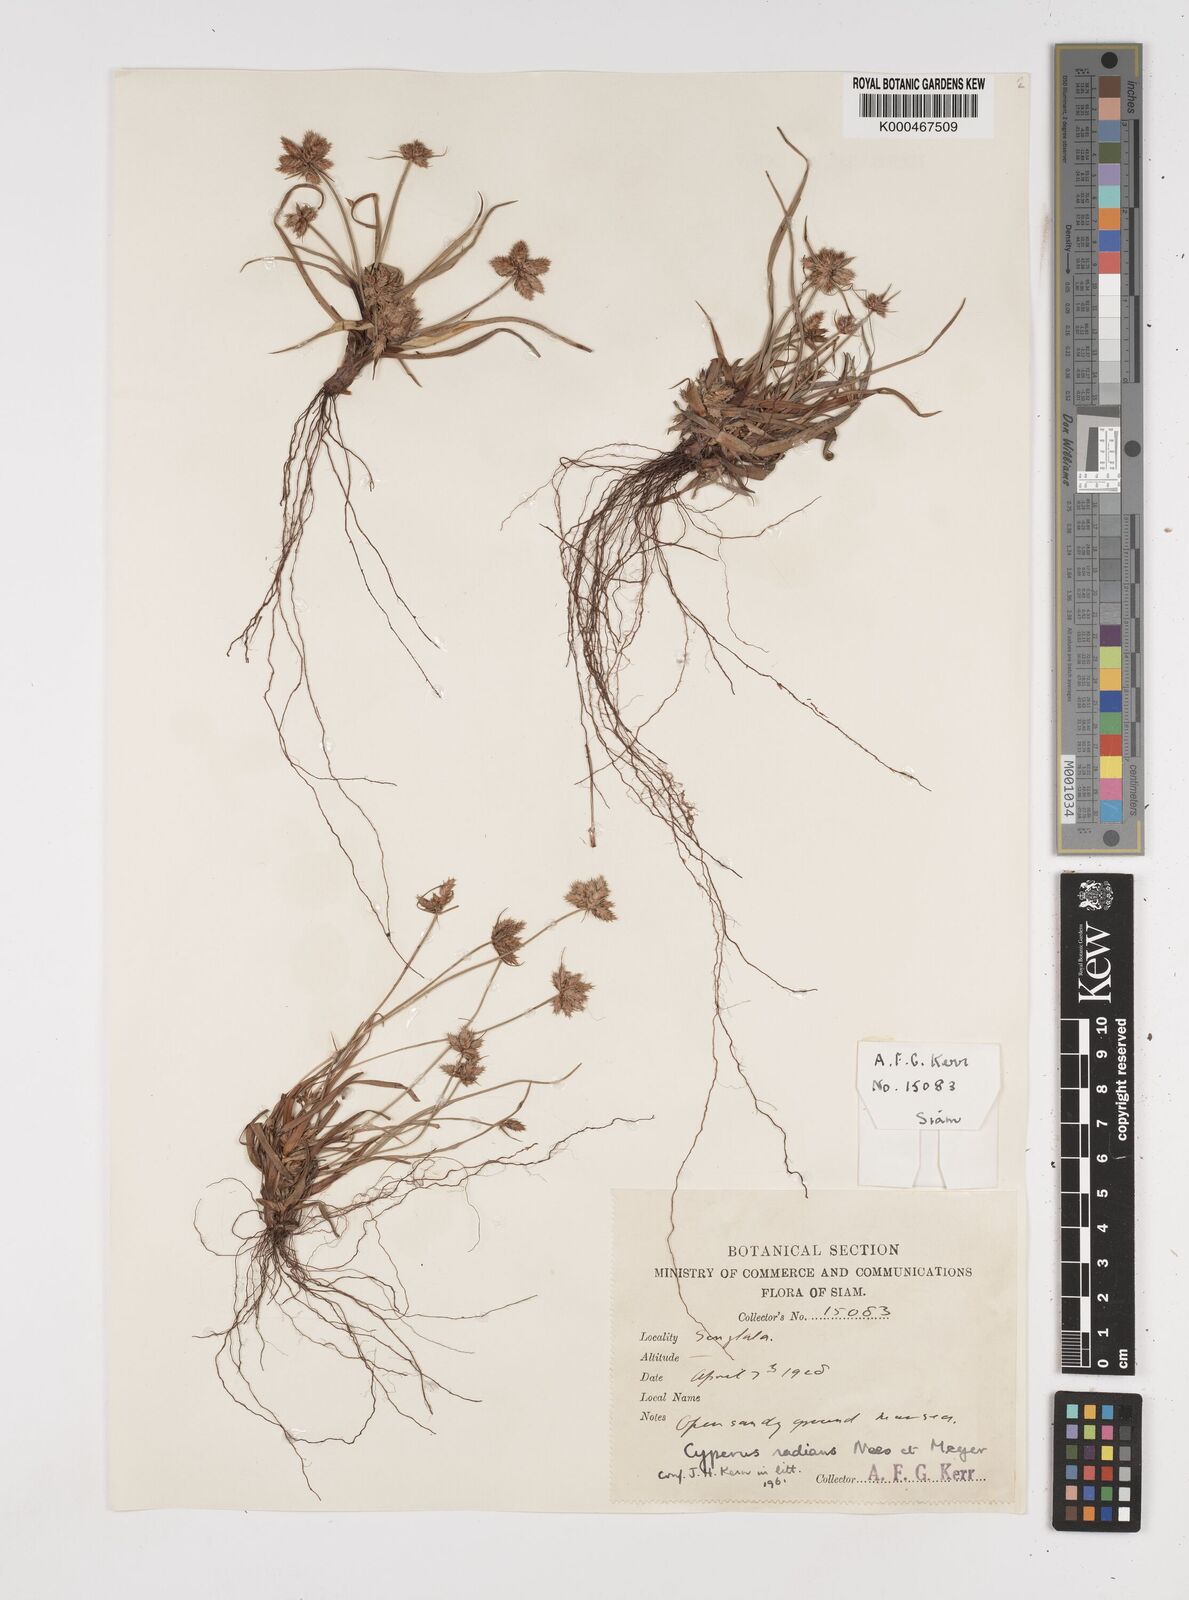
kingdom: Plantae
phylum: Tracheophyta
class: Liliopsida
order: Poales
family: Cyperaceae
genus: Cyperus
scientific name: Cyperus radians
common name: Short-stem cyperus
